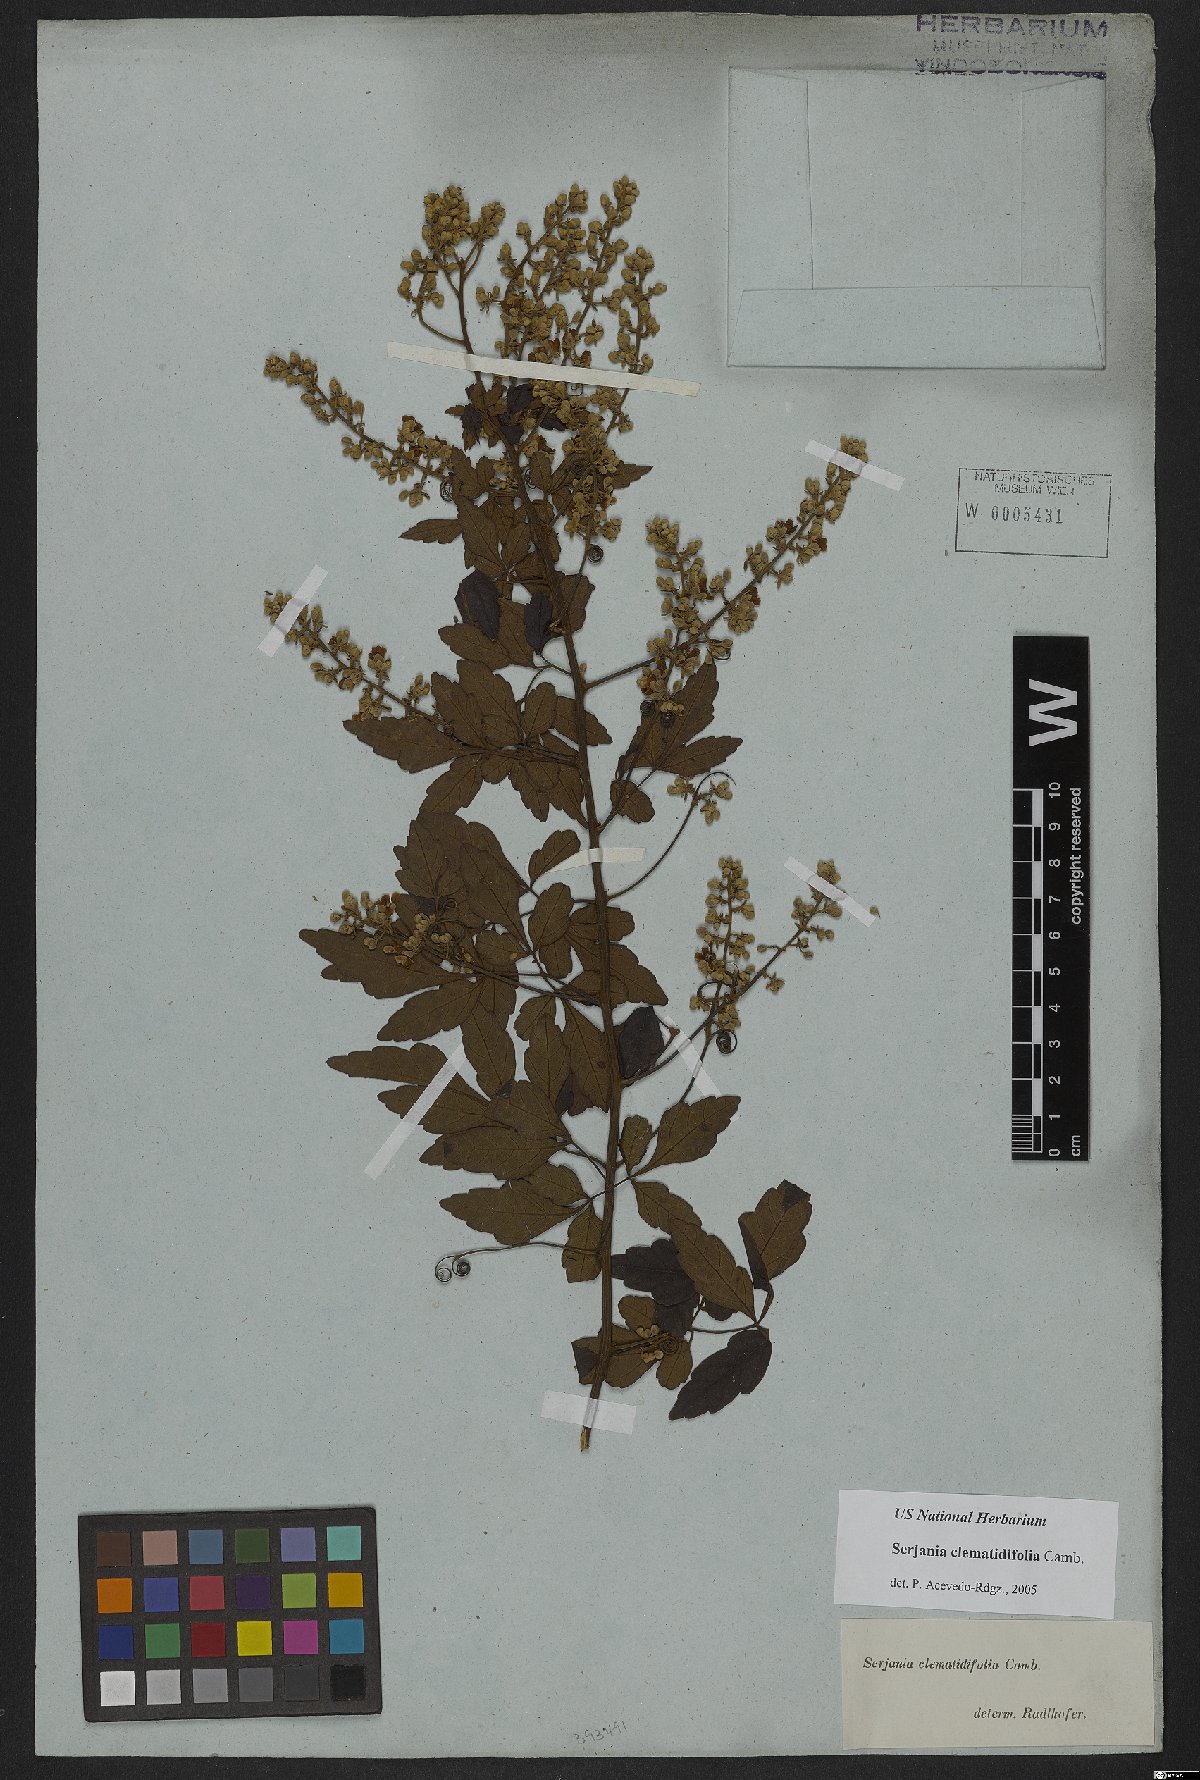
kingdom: Plantae
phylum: Tracheophyta
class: Magnoliopsida
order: Sapindales
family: Sapindaceae
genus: Serjania
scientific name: Serjania clematidifolia
